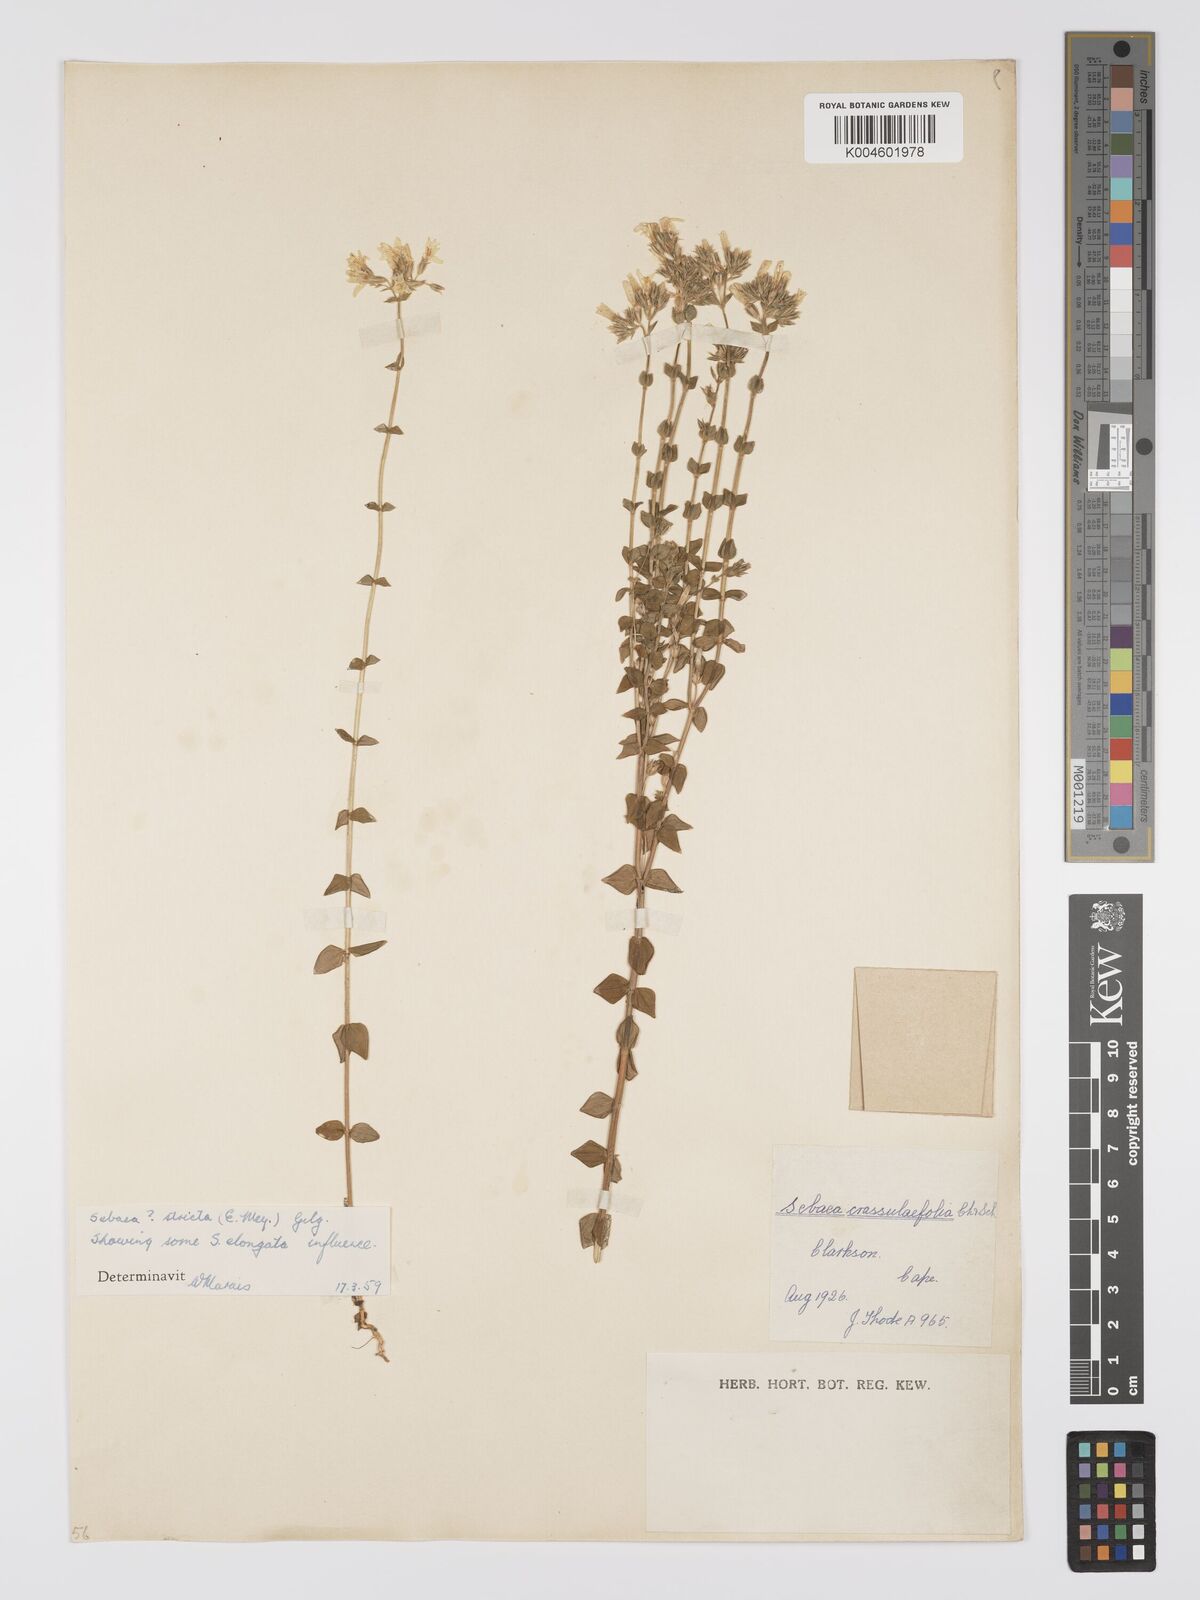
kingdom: Plantae
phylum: Tracheophyta
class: Magnoliopsida
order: Gentianales
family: Gentianaceae
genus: Sebaea
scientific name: Sebaea
